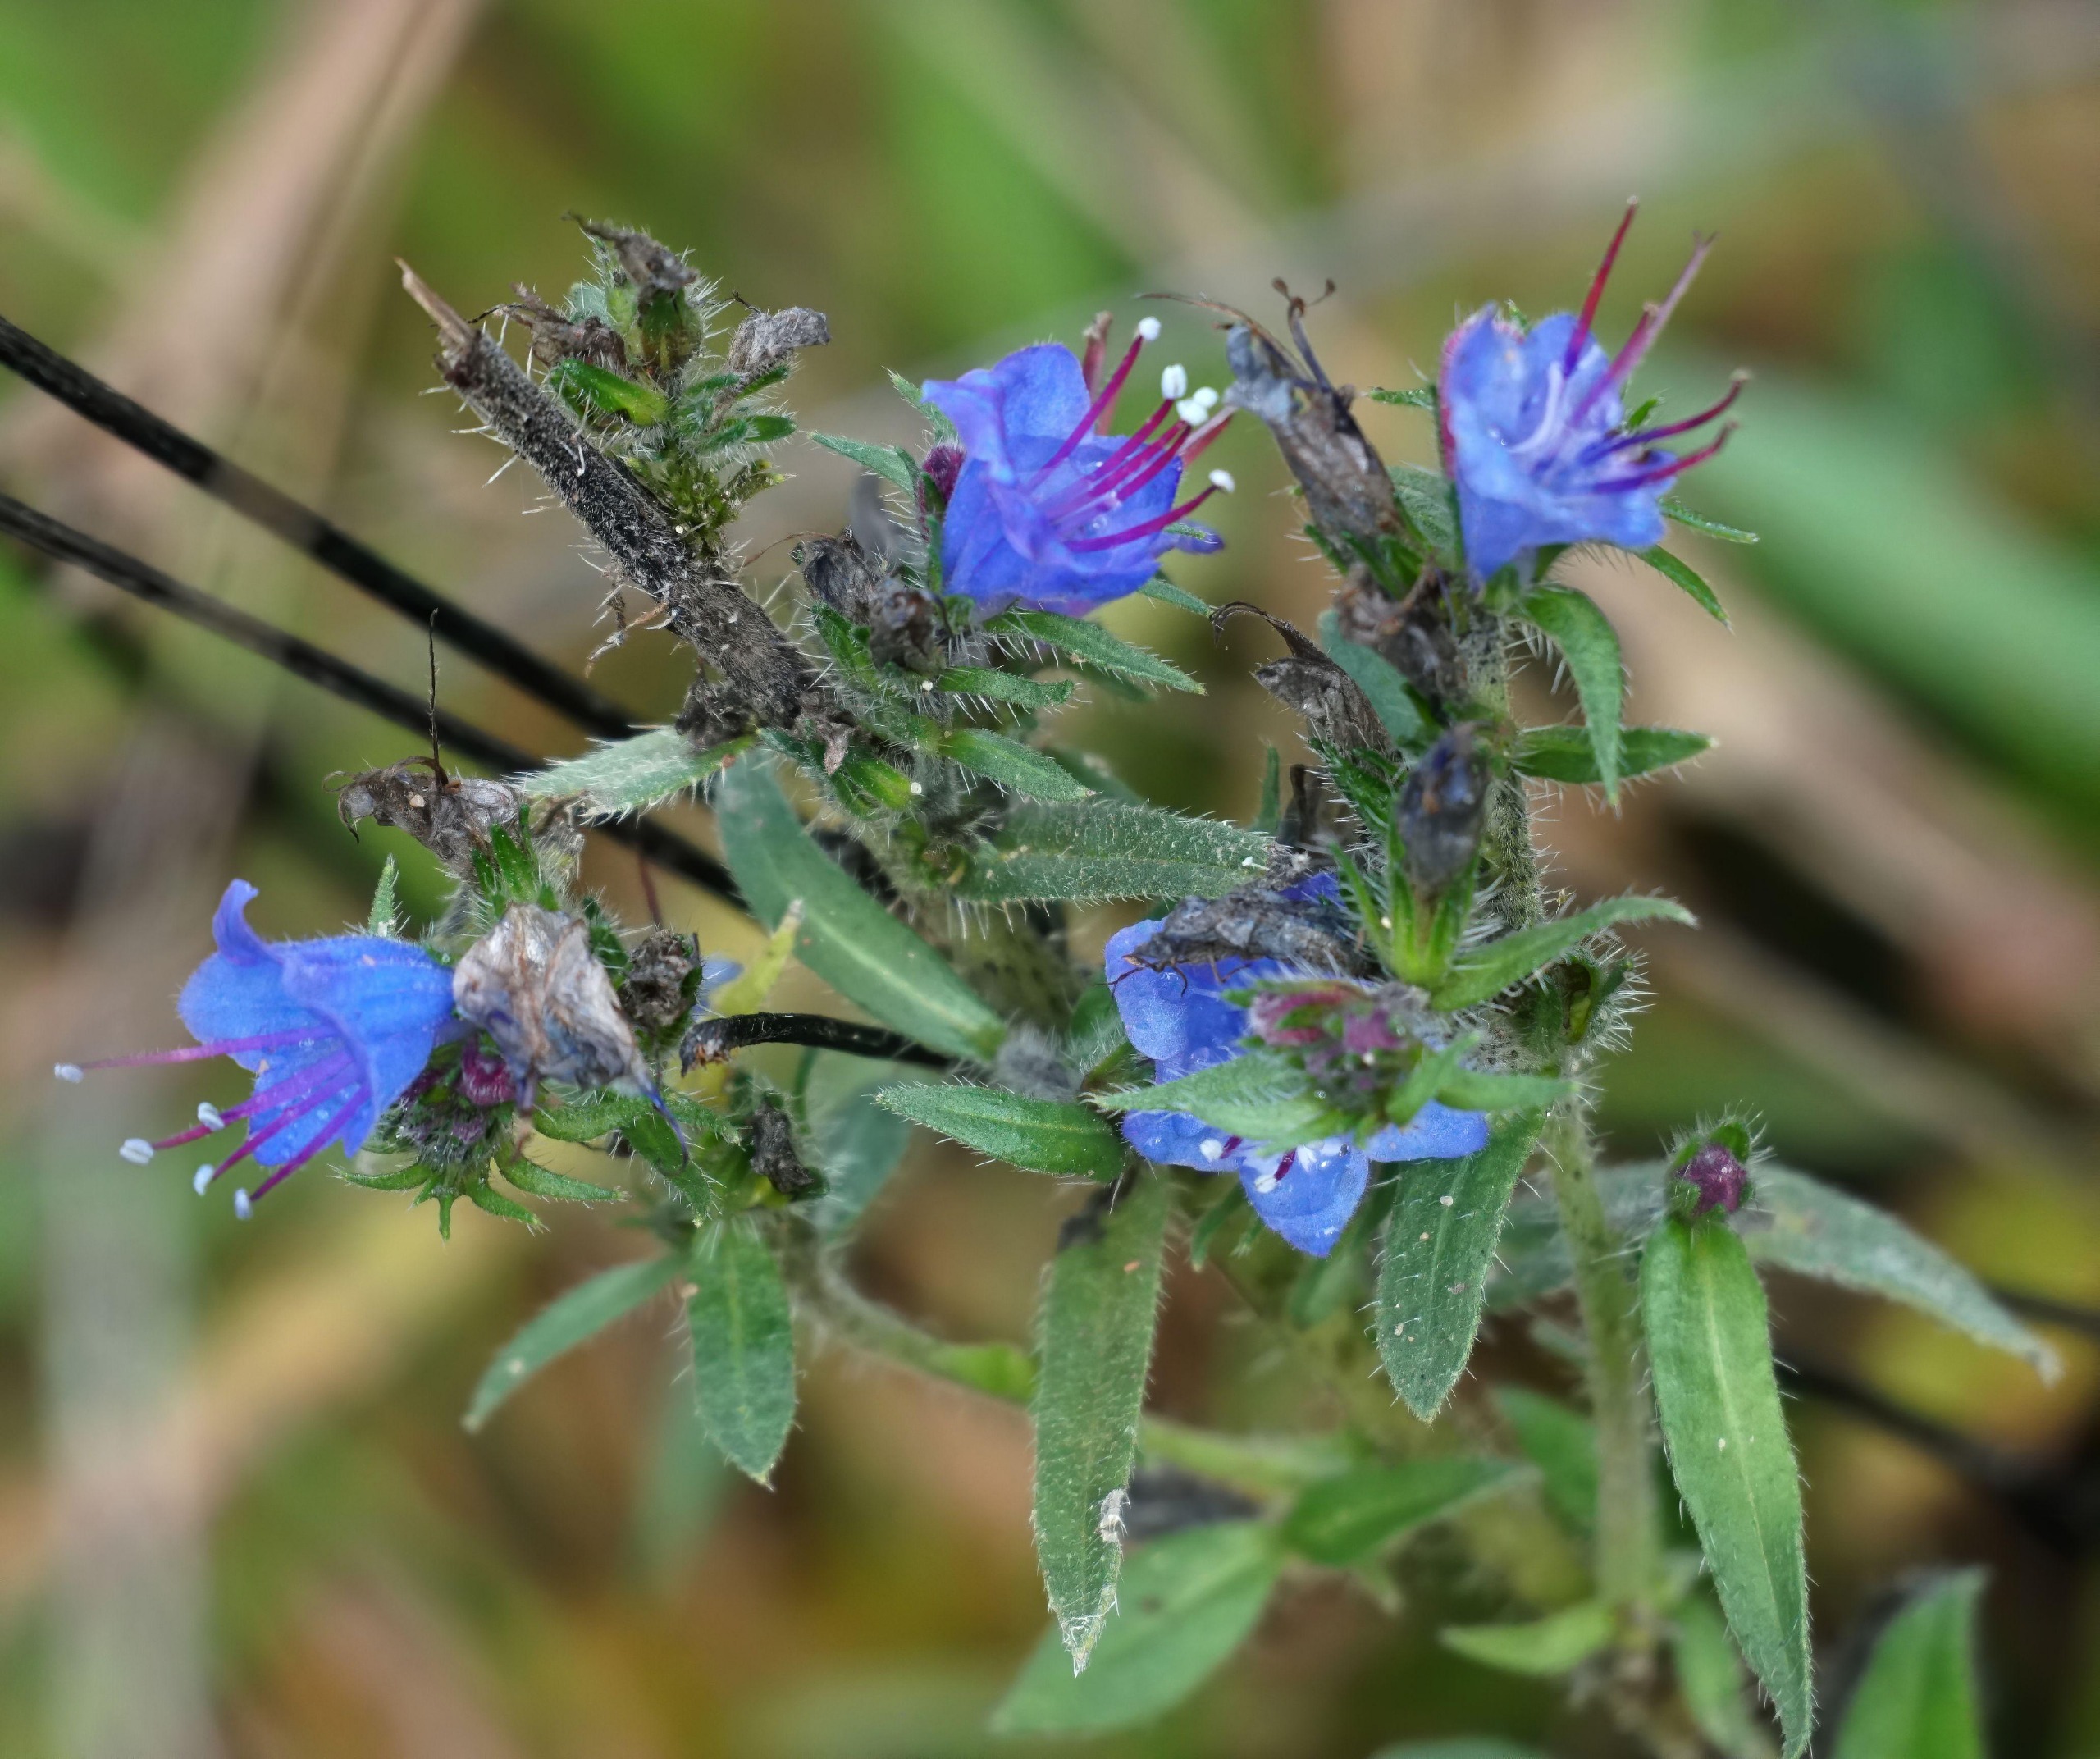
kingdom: Plantae
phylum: Tracheophyta
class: Magnoliopsida
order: Boraginales
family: Boraginaceae
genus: Echium
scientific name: Echium vulgare
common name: Slangehoved
